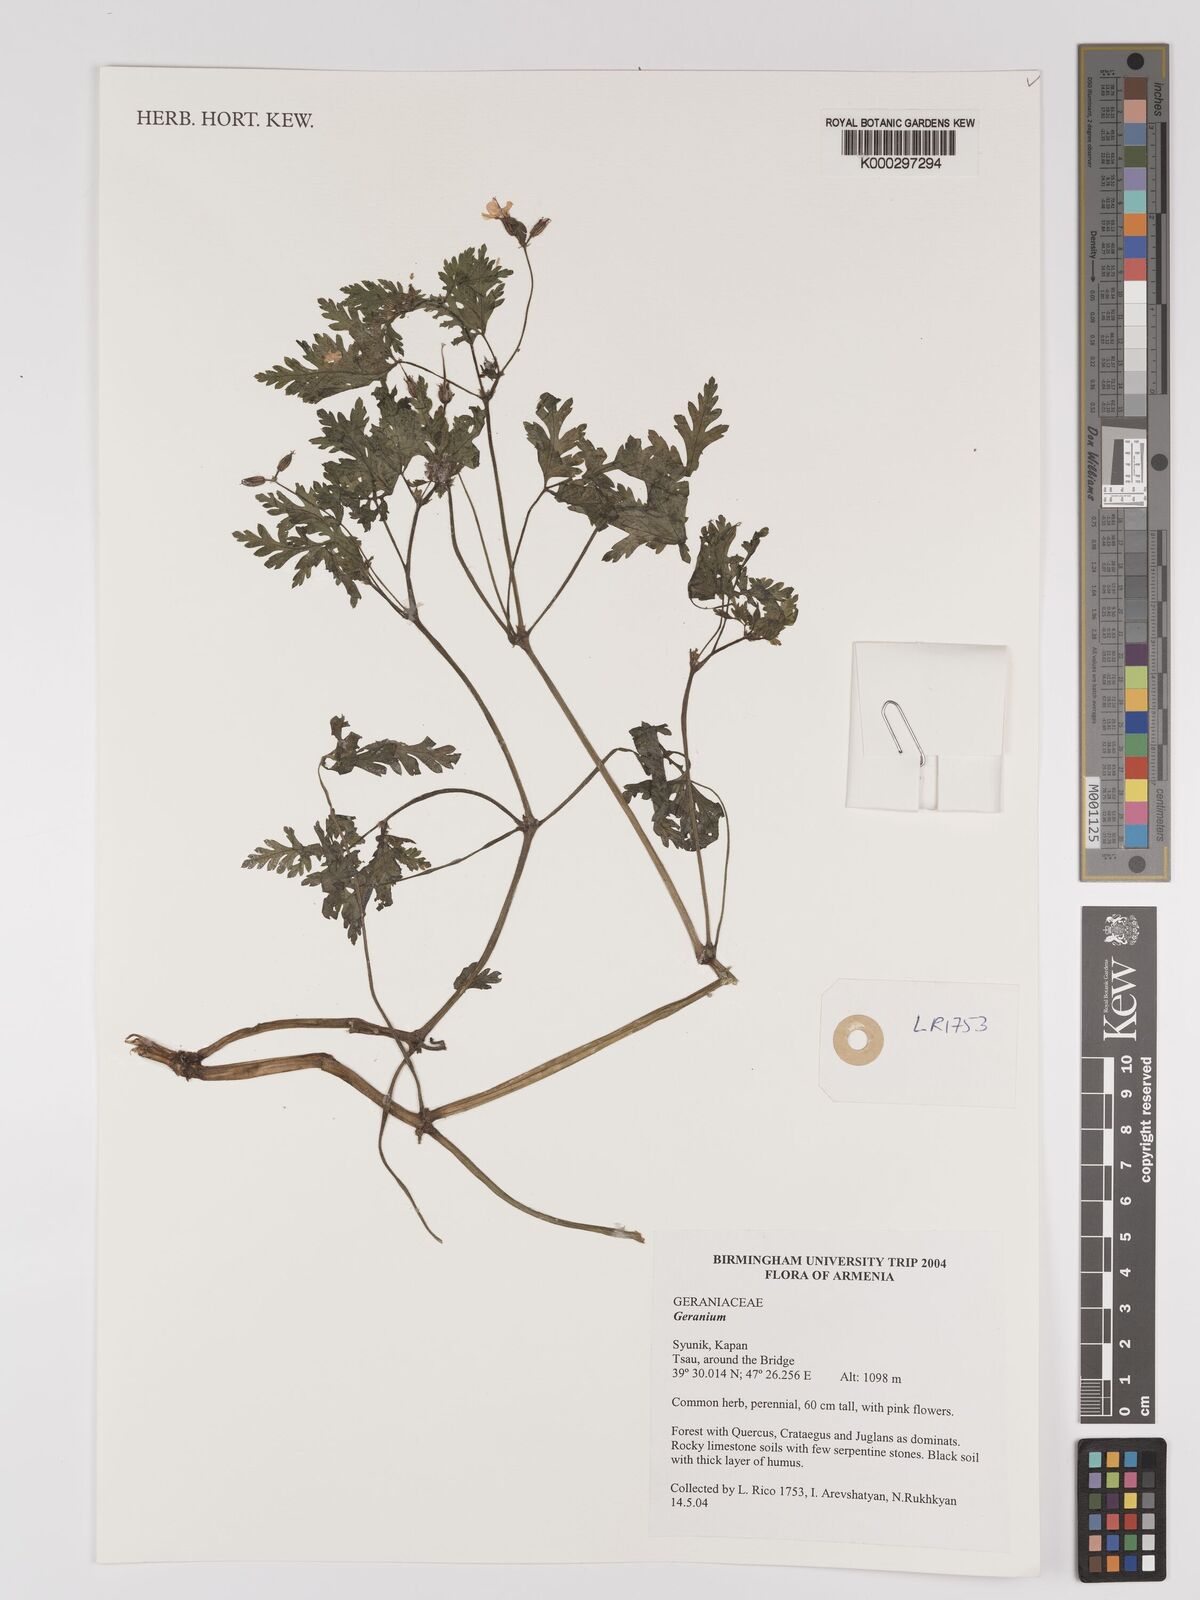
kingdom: Plantae
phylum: Tracheophyta
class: Magnoliopsida
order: Geraniales
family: Geraniaceae
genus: Geranium
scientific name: Geranium
